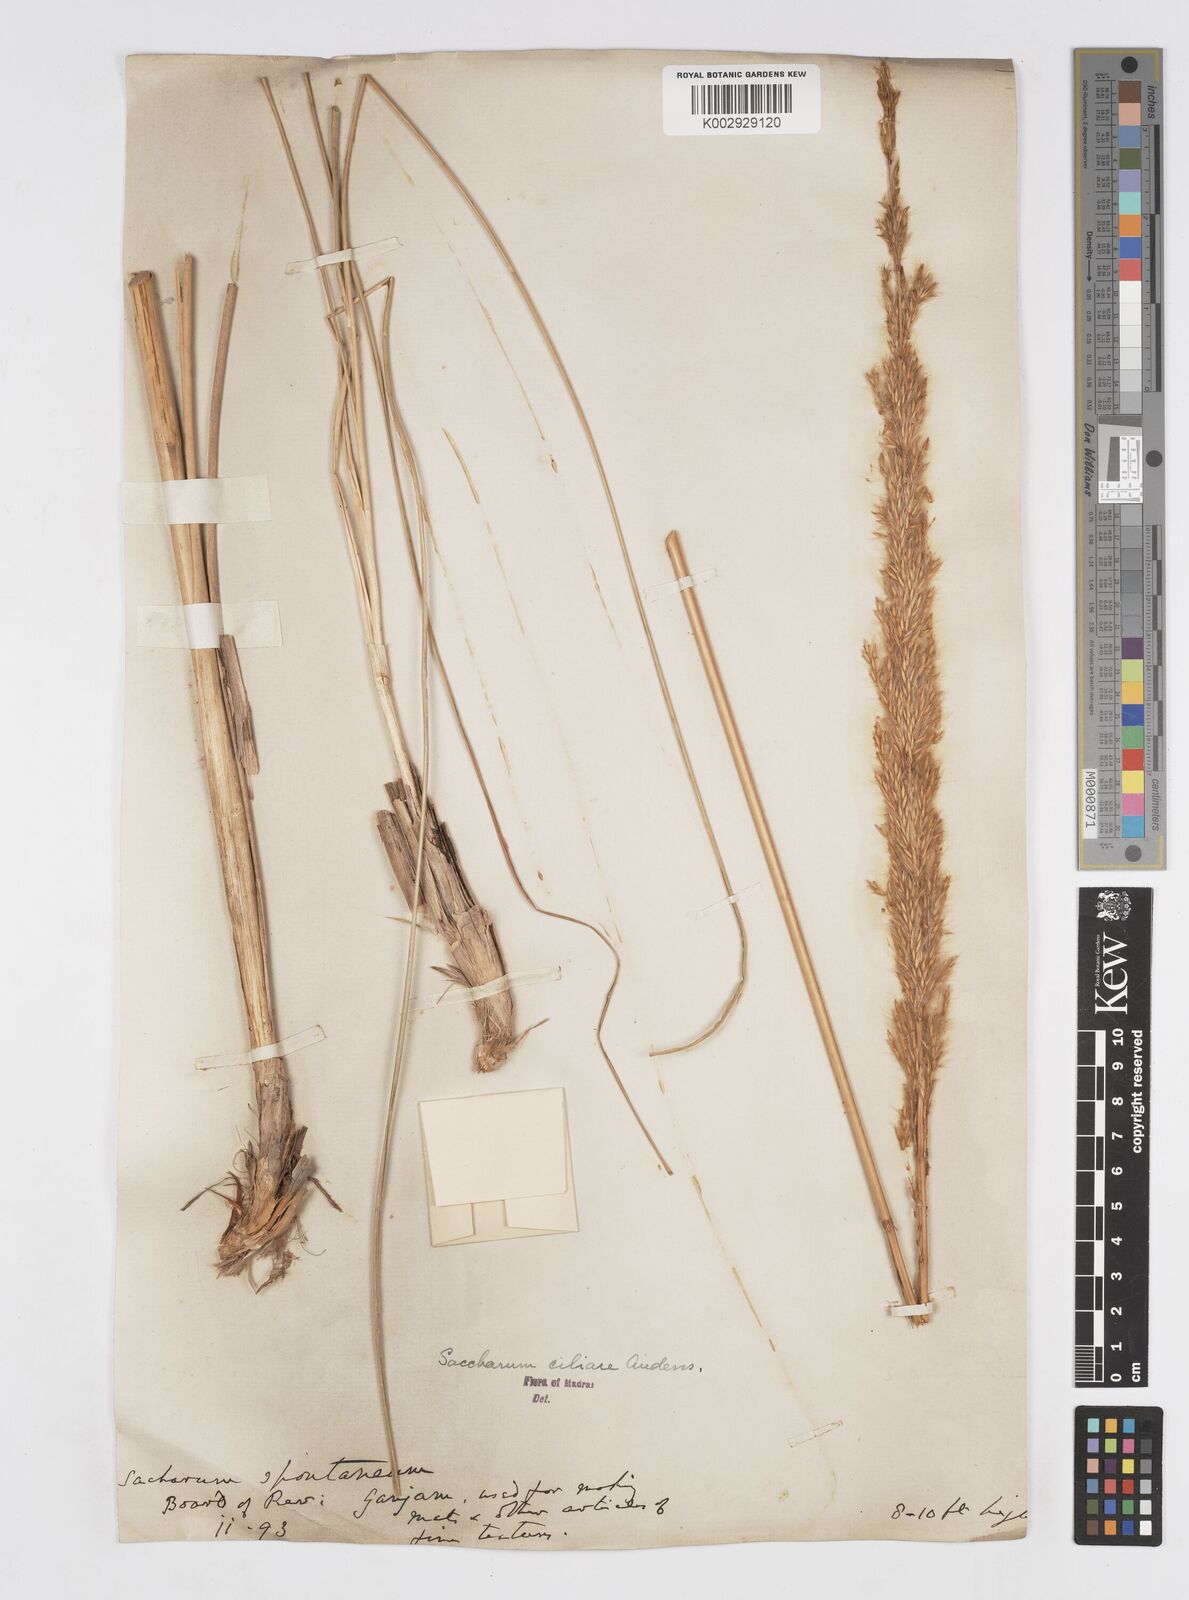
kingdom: Plantae
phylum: Tracheophyta
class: Liliopsida
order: Poales
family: Poaceae
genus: Tripidium
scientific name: Tripidium bengalense
